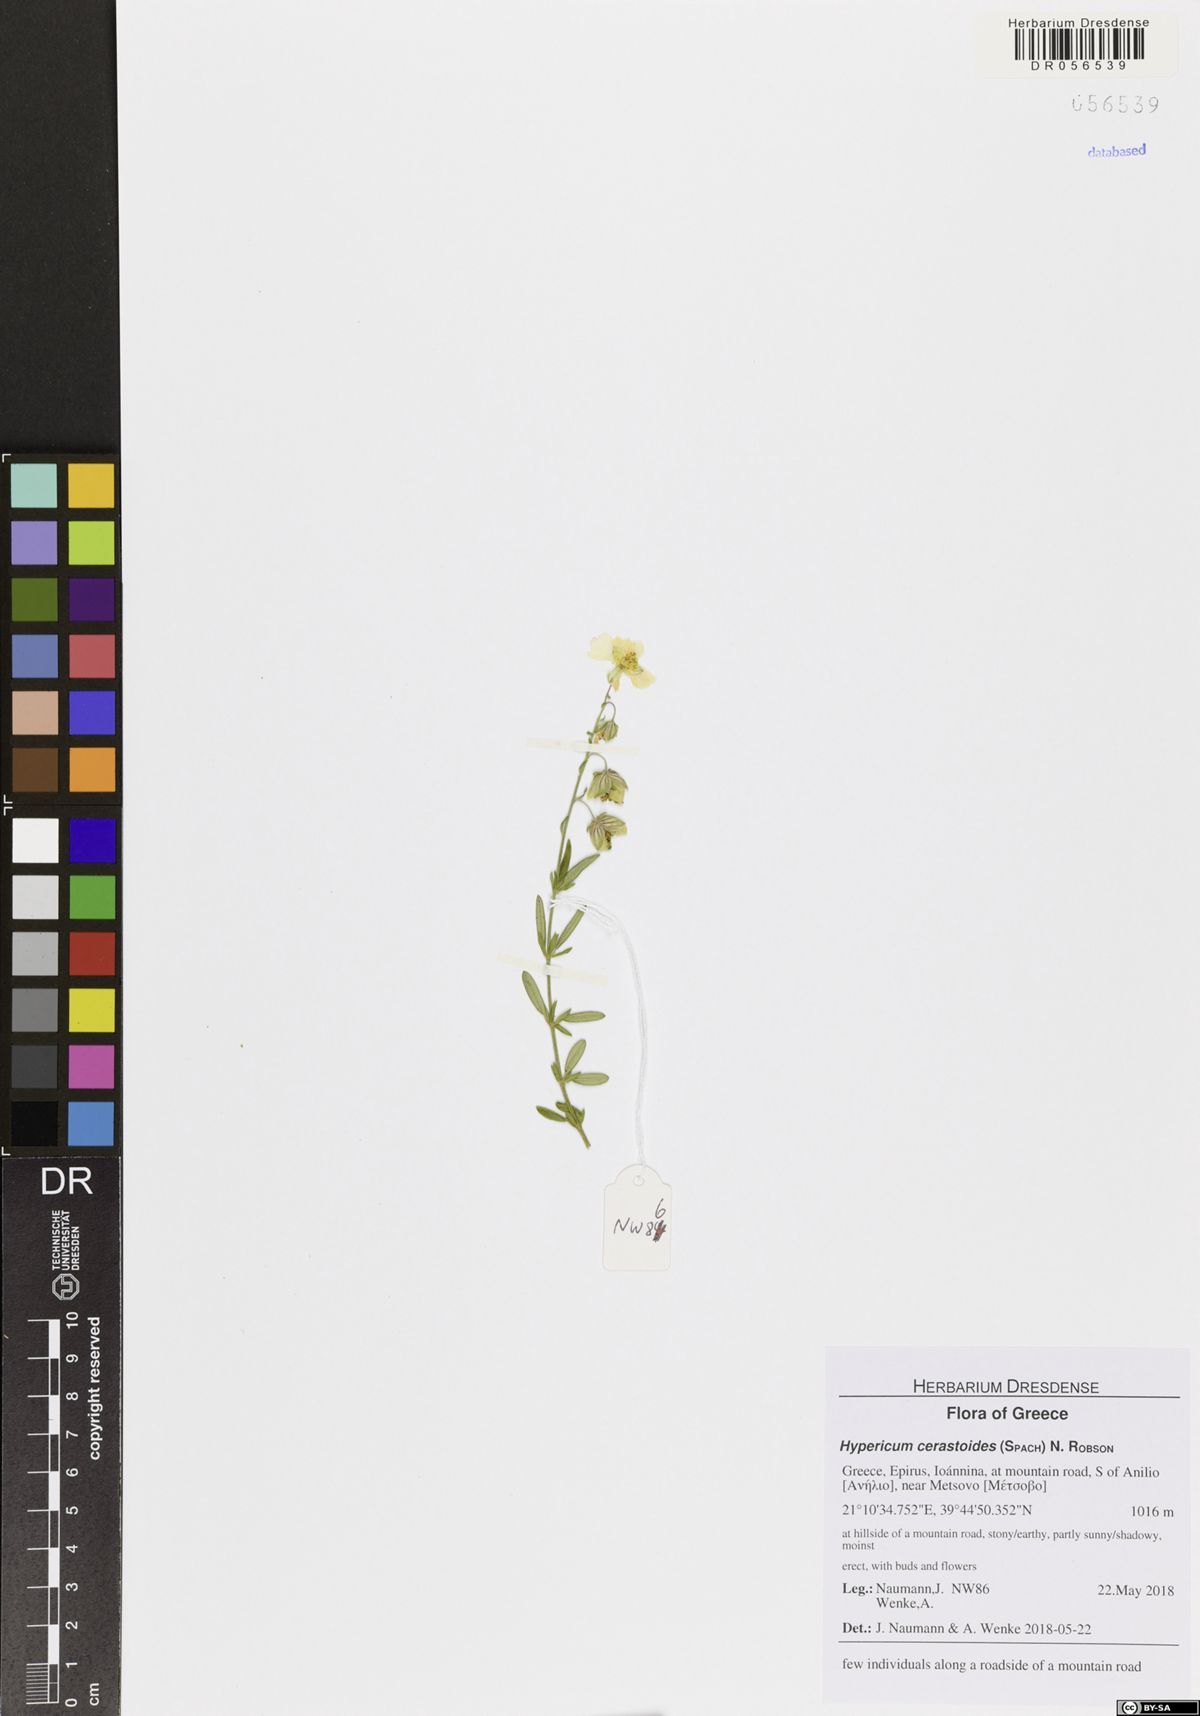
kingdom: Plantae
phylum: Tracheophyta
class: Magnoliopsida
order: Malpighiales
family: Hypericaceae
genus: Hypericum
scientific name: Hypericum cerastoides
